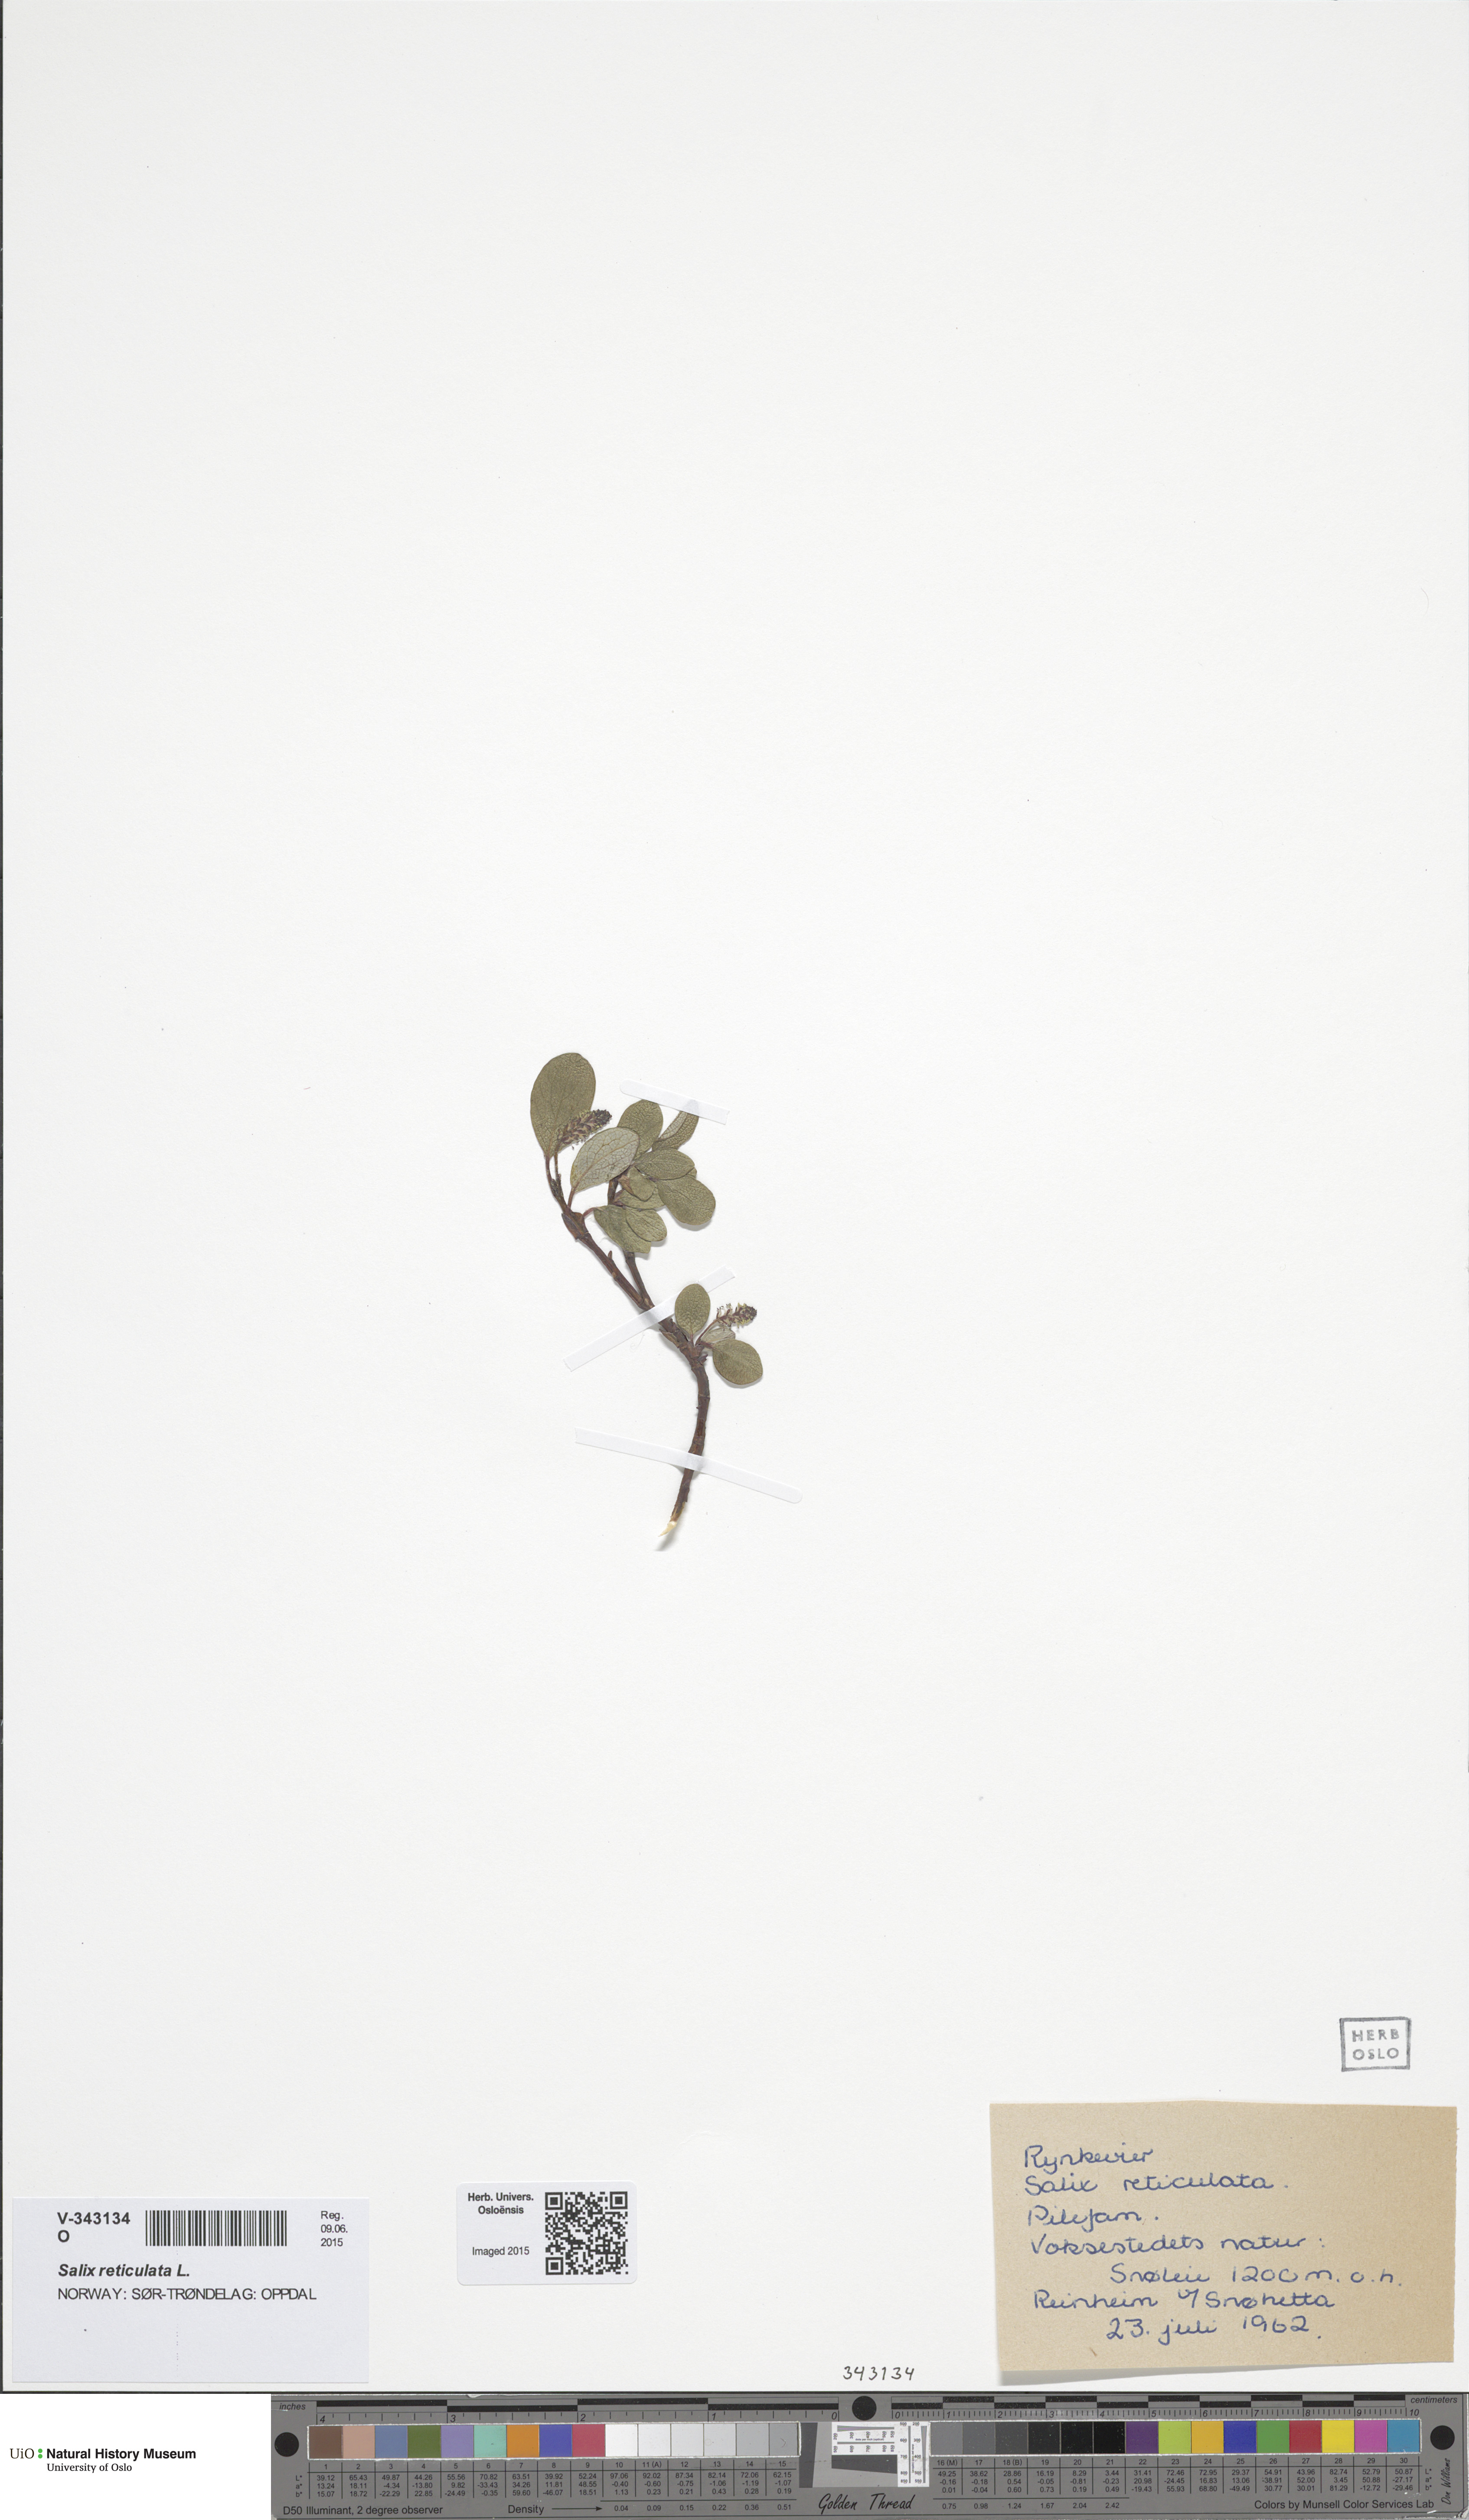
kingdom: Plantae
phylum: Tracheophyta
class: Magnoliopsida
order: Malpighiales
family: Salicaceae
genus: Salix
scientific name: Salix reticulata
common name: Net-leaved willow
